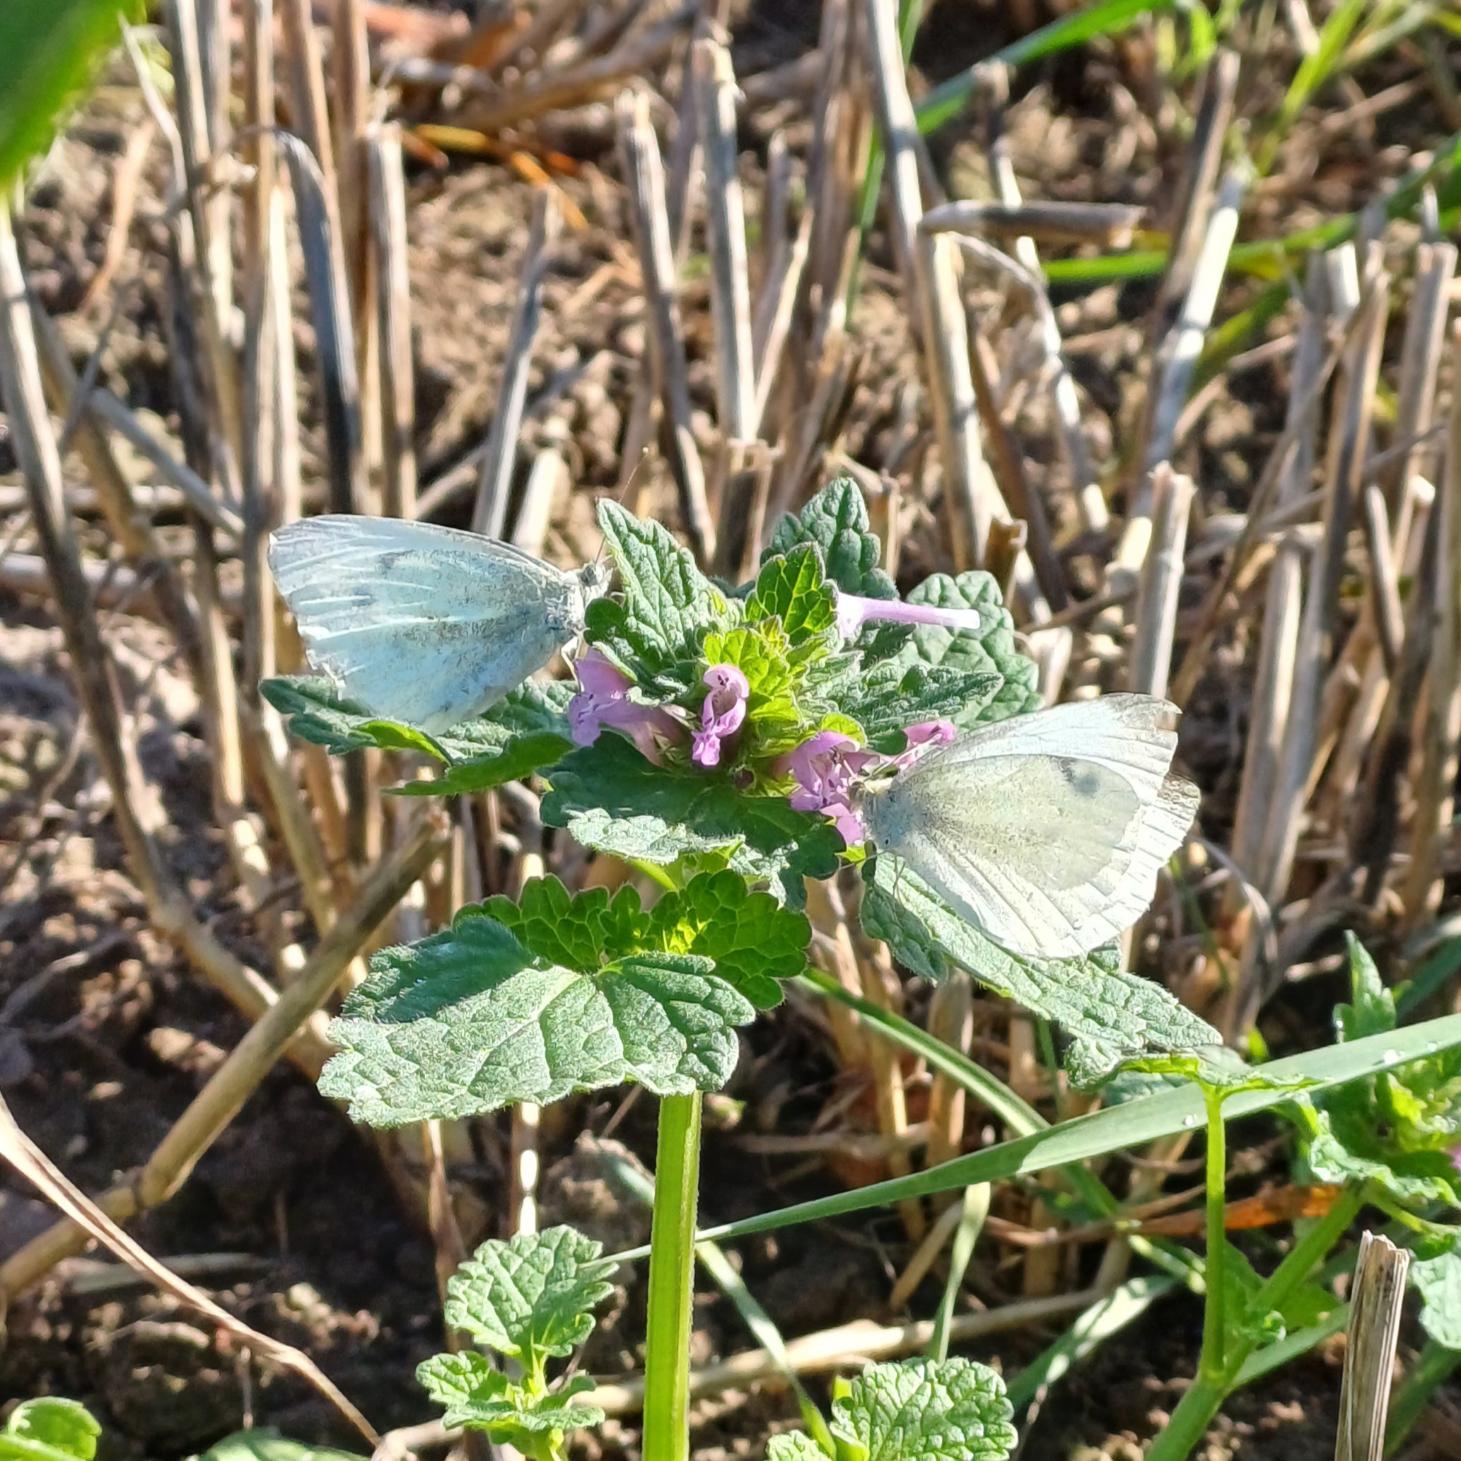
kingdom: Animalia
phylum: Arthropoda
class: Insecta
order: Lepidoptera
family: Pieridae
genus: Pieris
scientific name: Pieris rapae
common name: Lille kålsommerfugl
